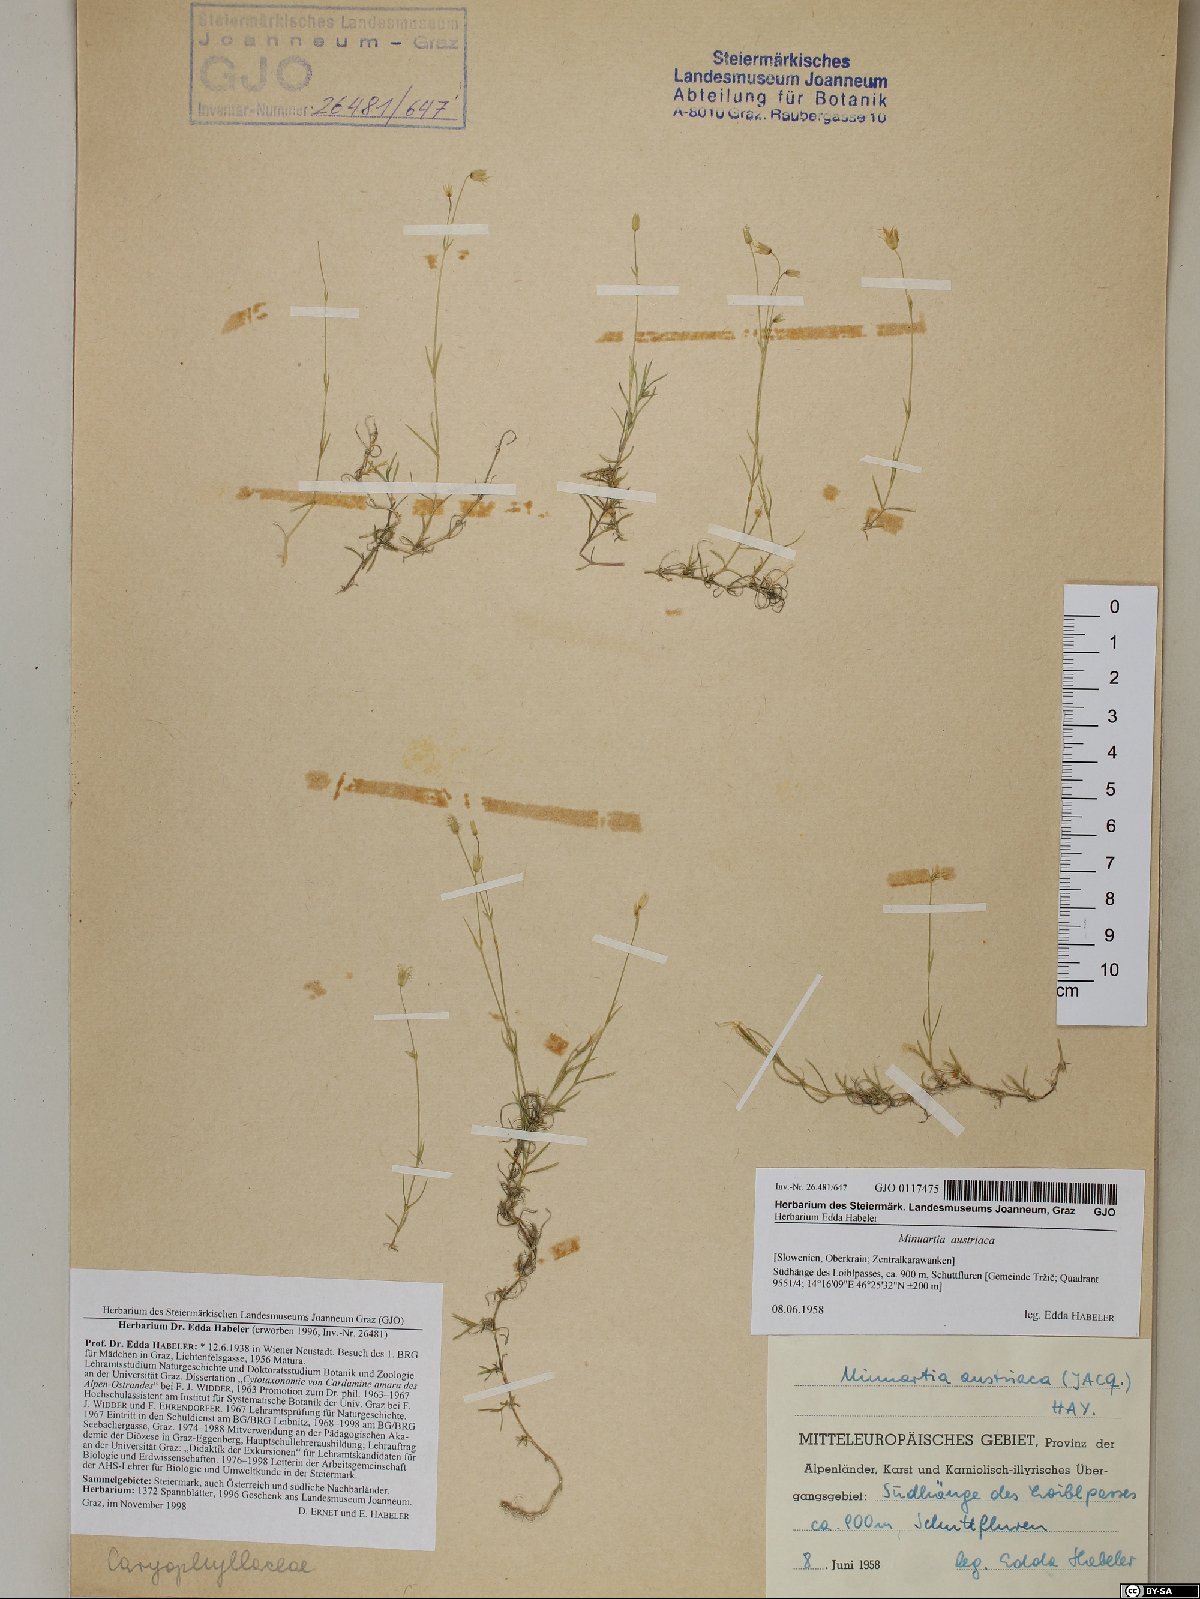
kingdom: Plantae
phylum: Tracheophyta
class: Magnoliopsida
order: Caryophyllales
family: Caryophyllaceae
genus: Sabulina
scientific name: Sabulina austriaca
